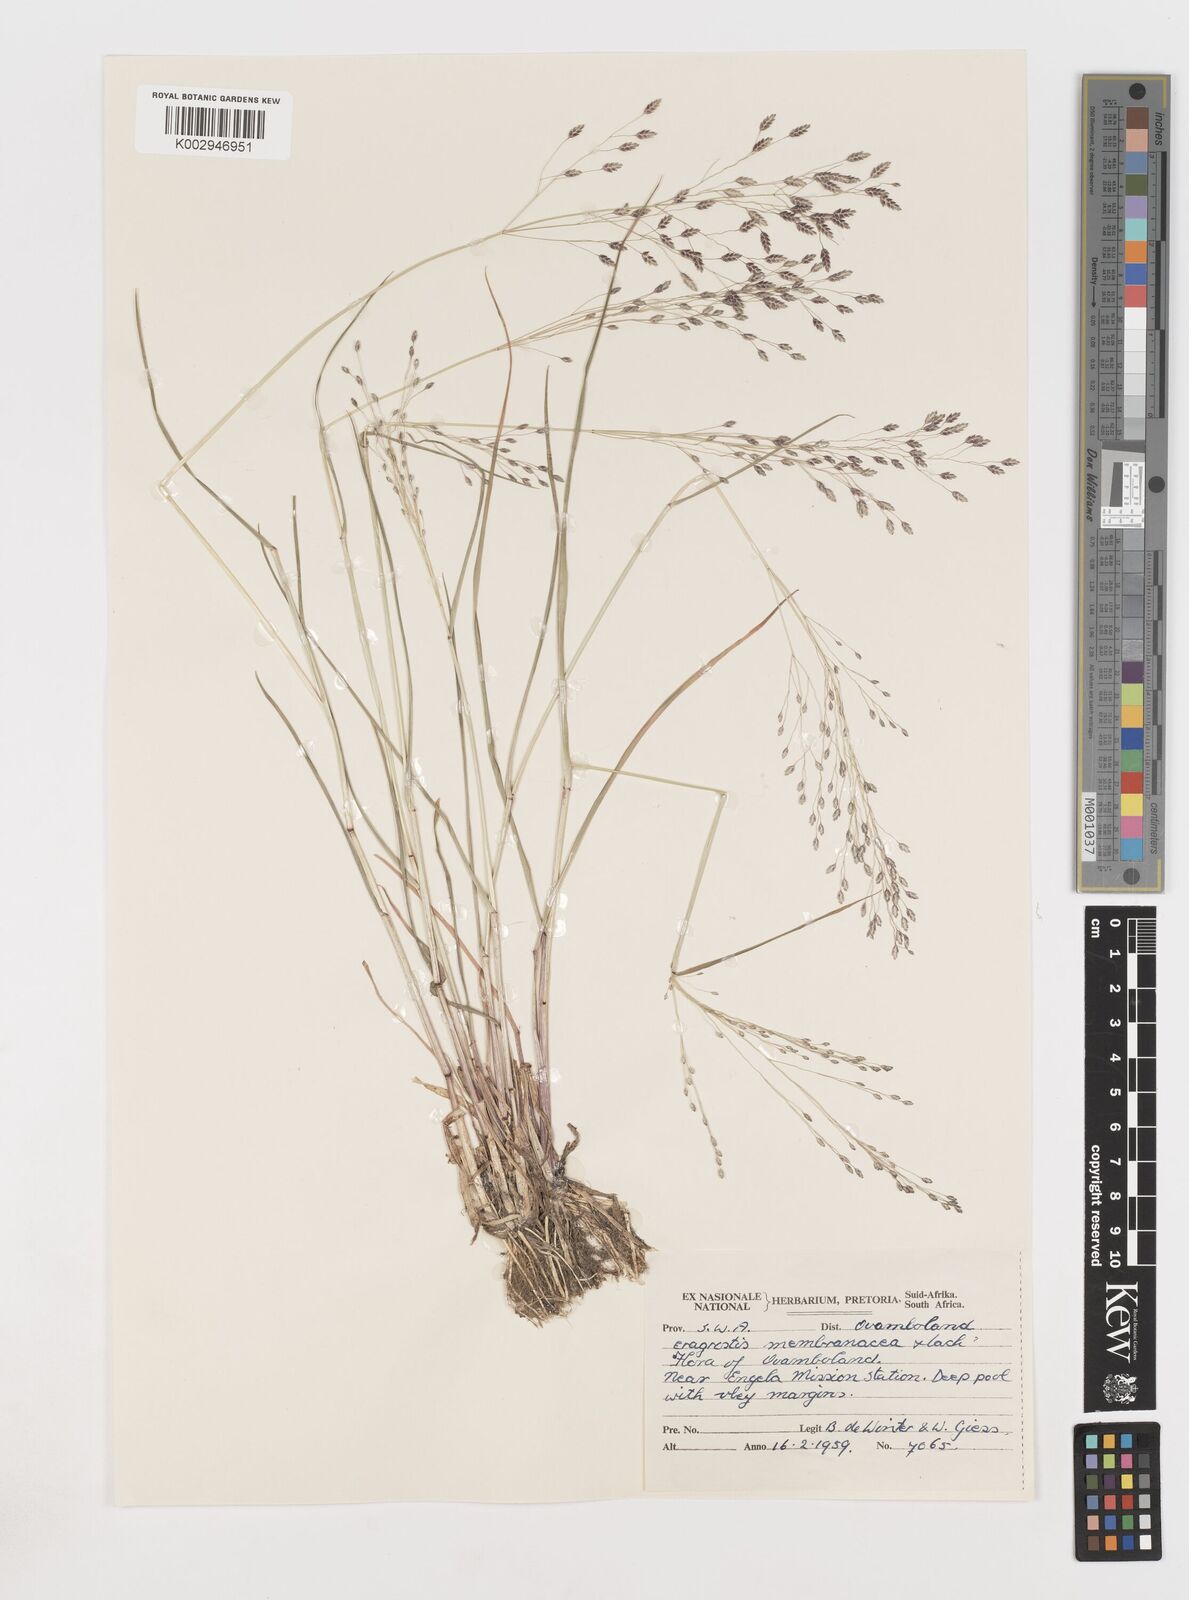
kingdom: Plantae
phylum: Tracheophyta
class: Liliopsida
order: Poales
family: Poaceae
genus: Eragrostis
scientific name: Eragrostis membranacea
